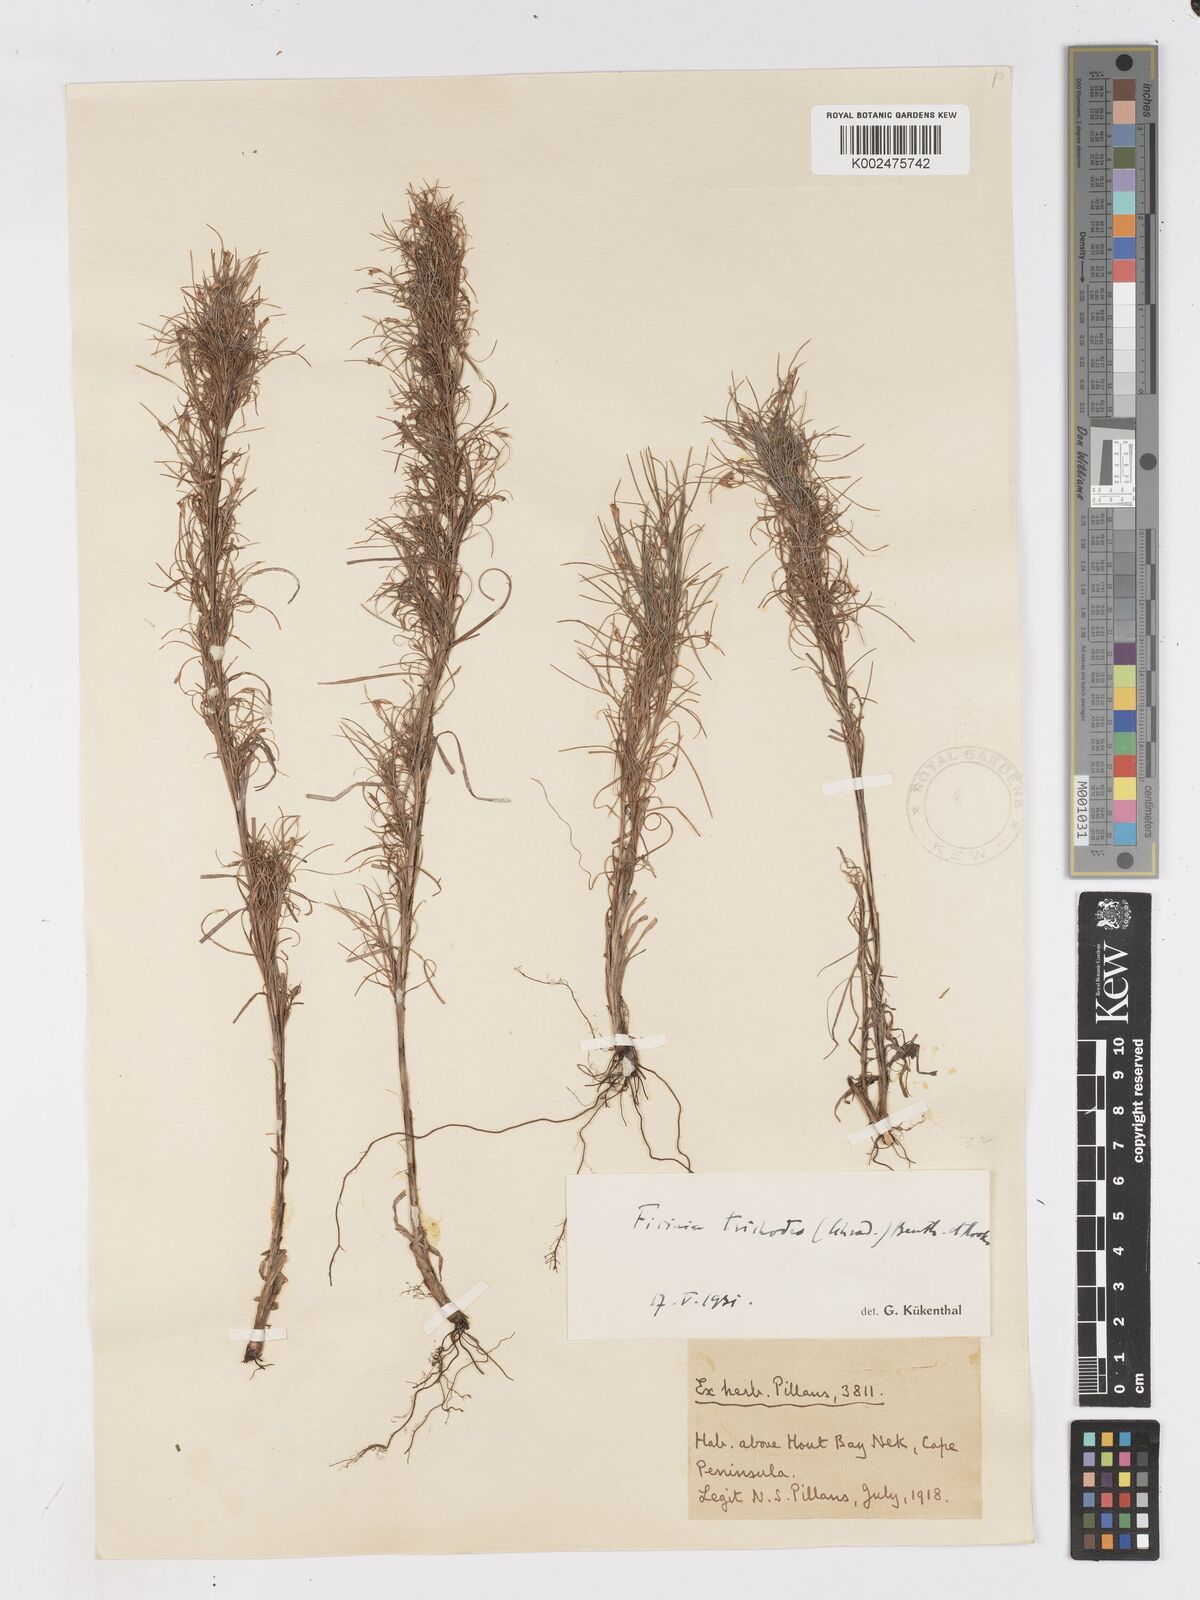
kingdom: Plantae
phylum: Tracheophyta
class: Liliopsida
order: Poales
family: Cyperaceae
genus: Ficinia
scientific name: Ficinia trichodes
